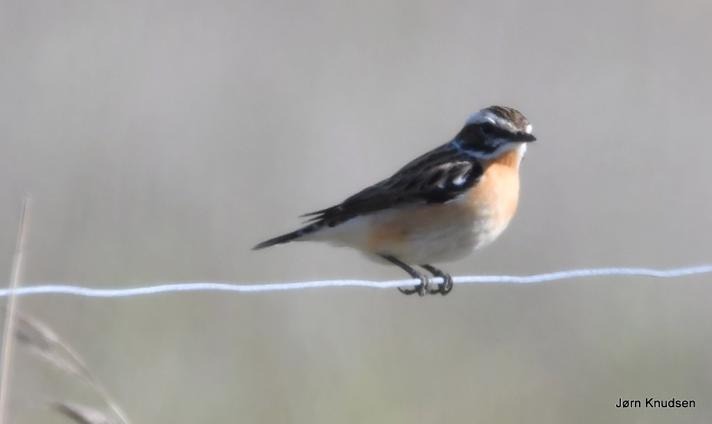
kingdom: Animalia
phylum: Chordata
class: Aves
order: Passeriformes
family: Muscicapidae
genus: Saxicola
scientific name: Saxicola rubetra
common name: Bynkefugl
